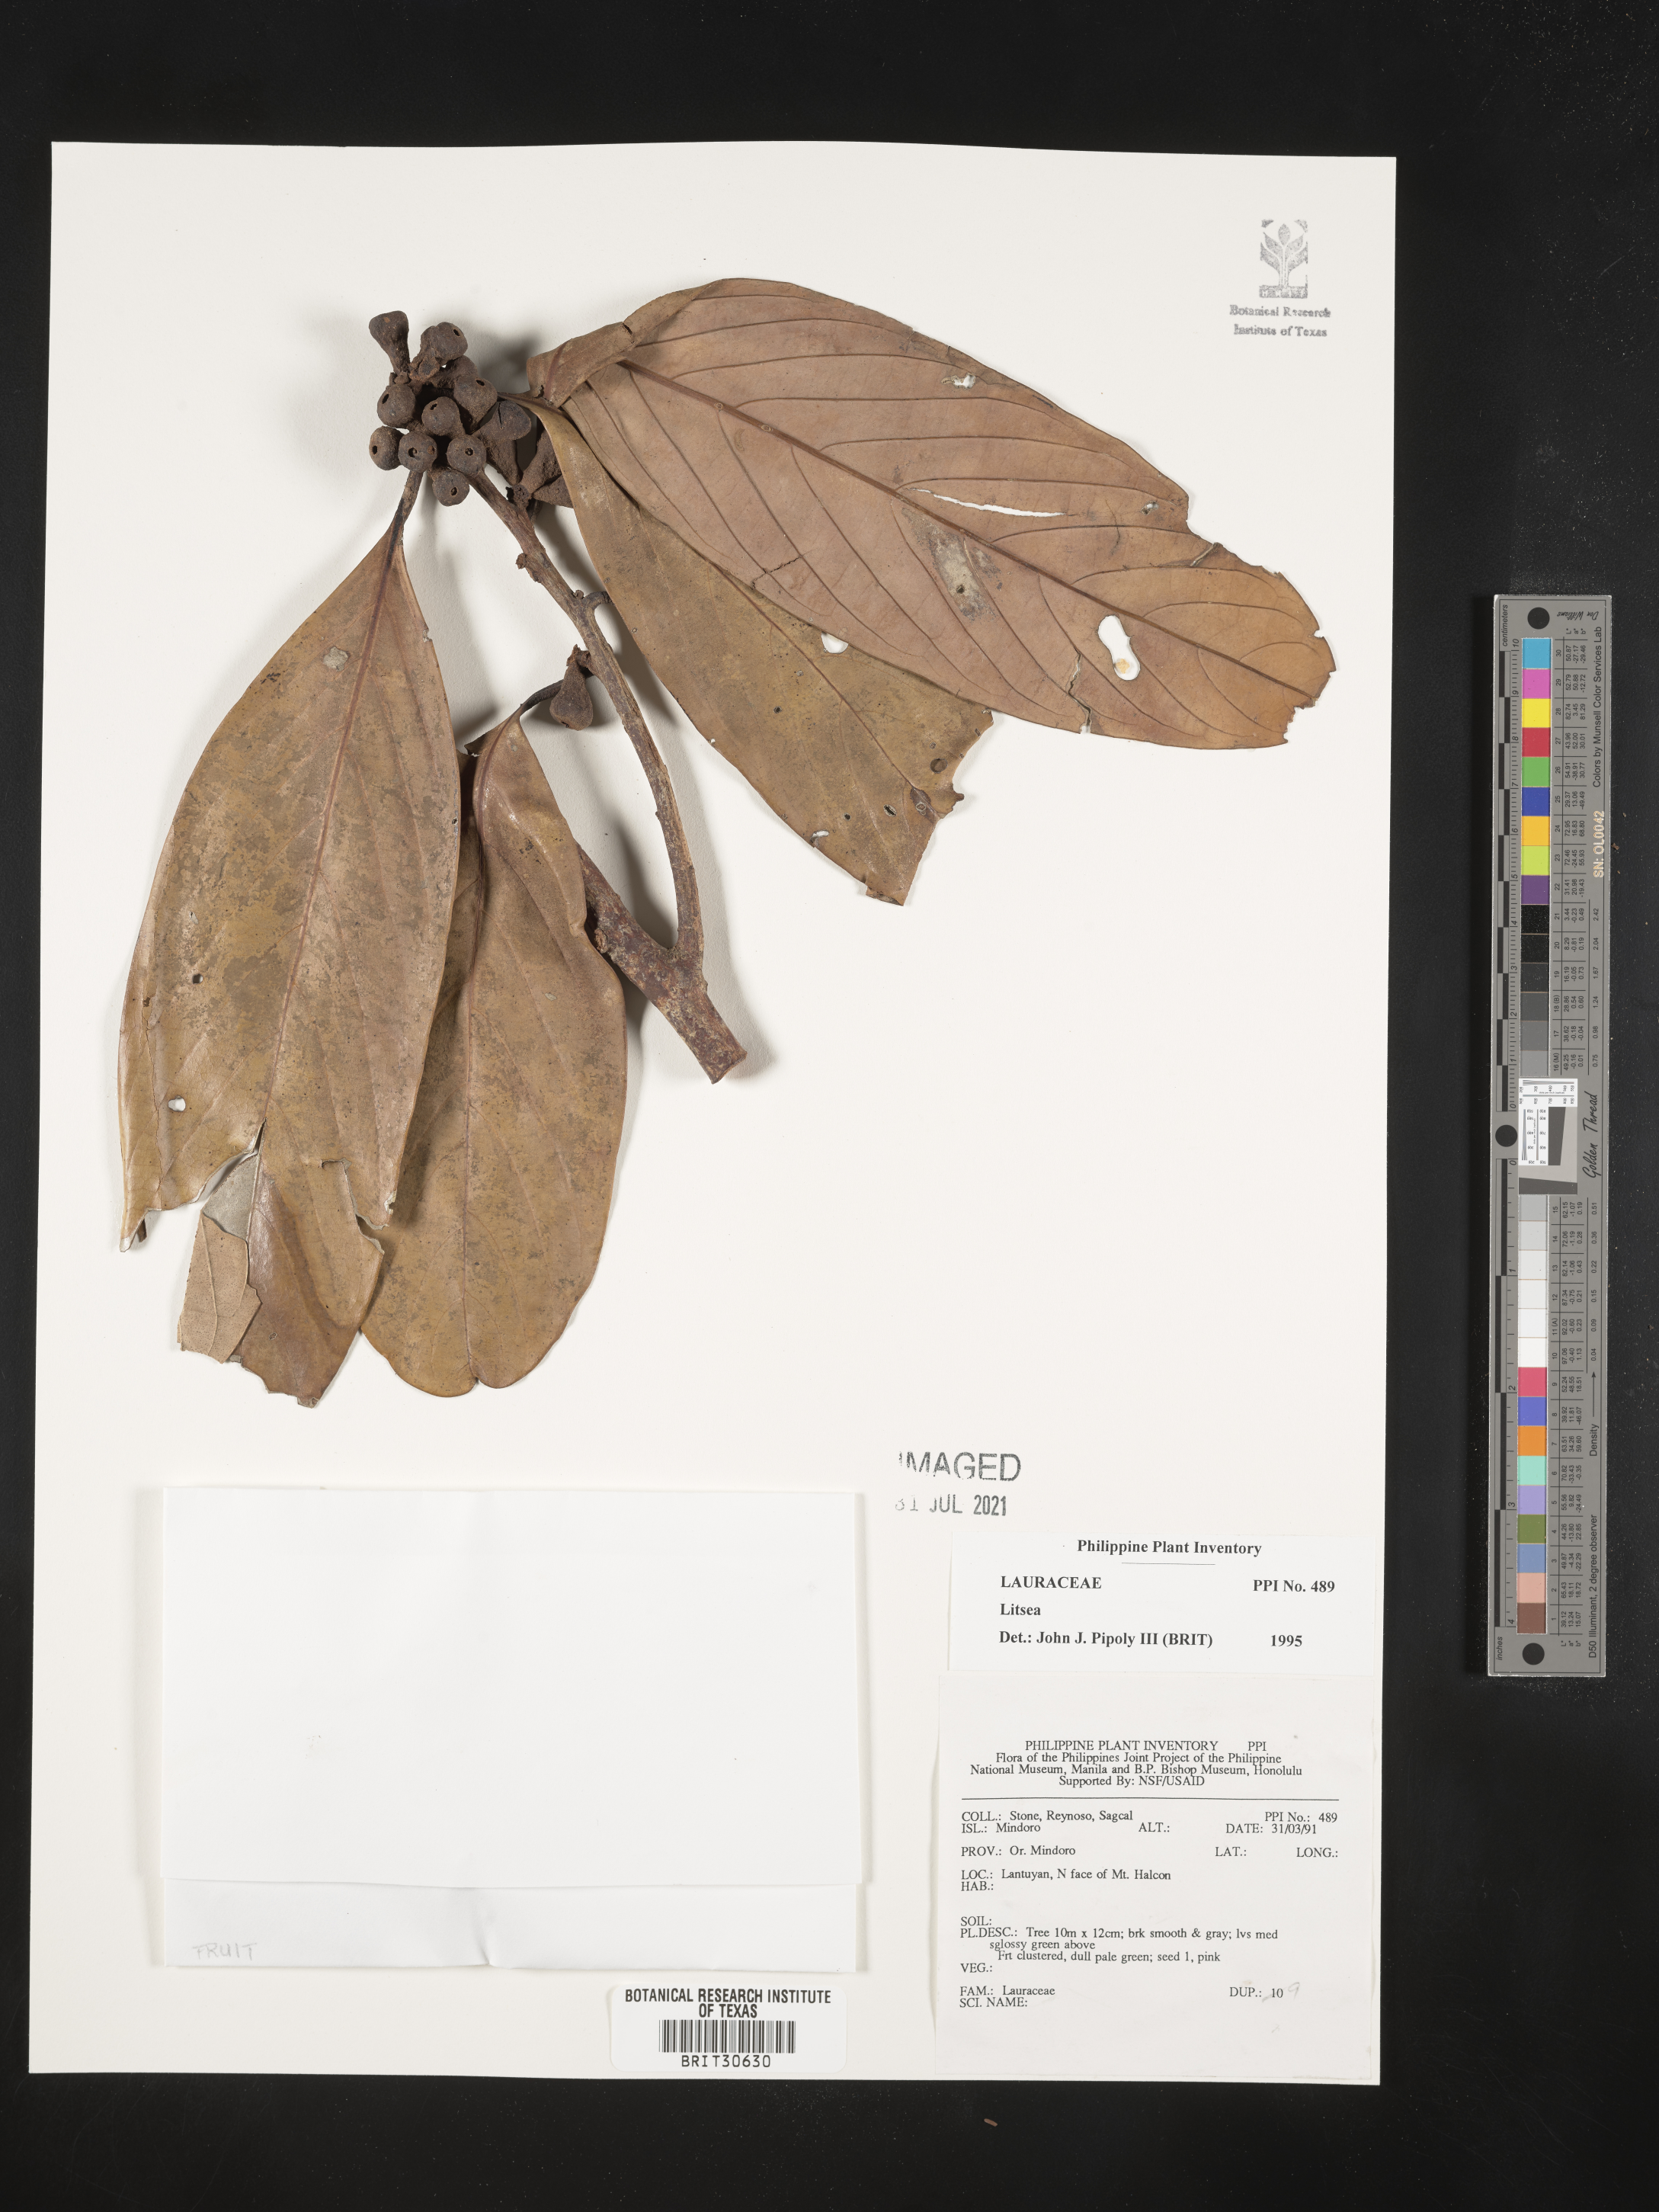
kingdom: Plantae
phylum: Tracheophyta
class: Magnoliopsida
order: Laurales
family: Lauraceae
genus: Litsea
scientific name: Litsea
